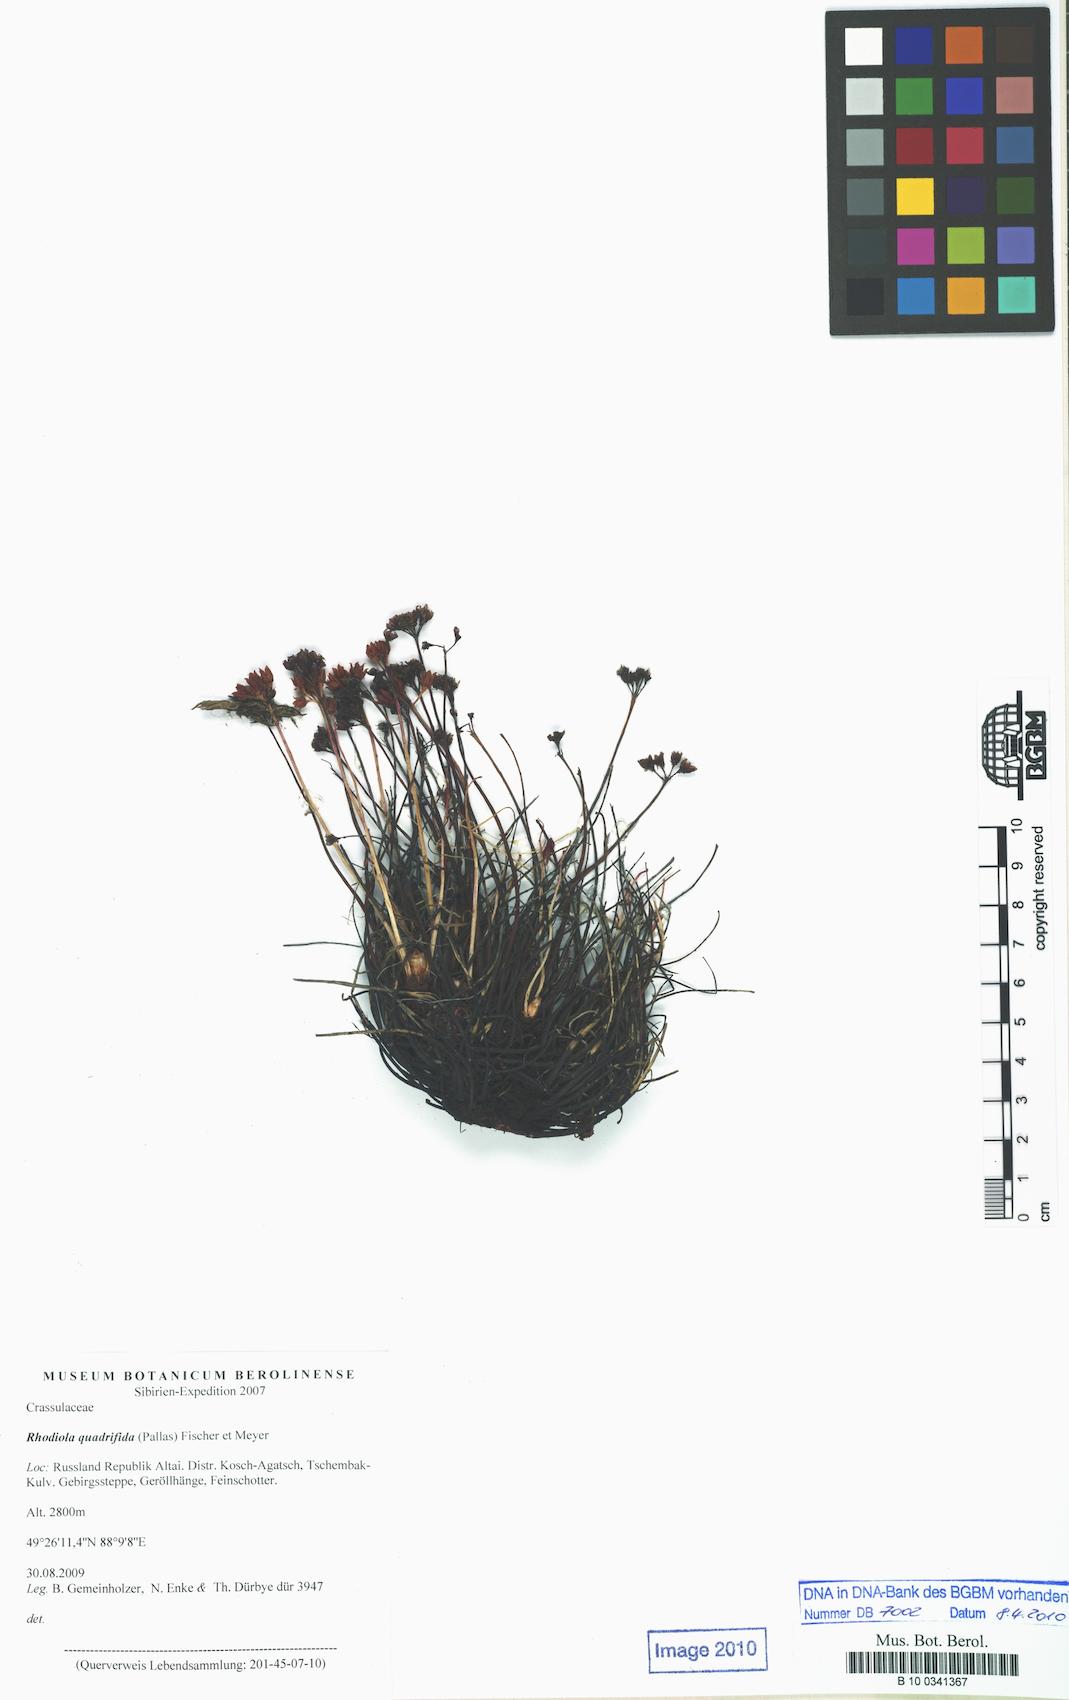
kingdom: Plantae
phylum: Tracheophyta
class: Magnoliopsida
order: Saxifragales
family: Crassulaceae
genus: Rhodiola
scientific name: Rhodiola quadrifida
